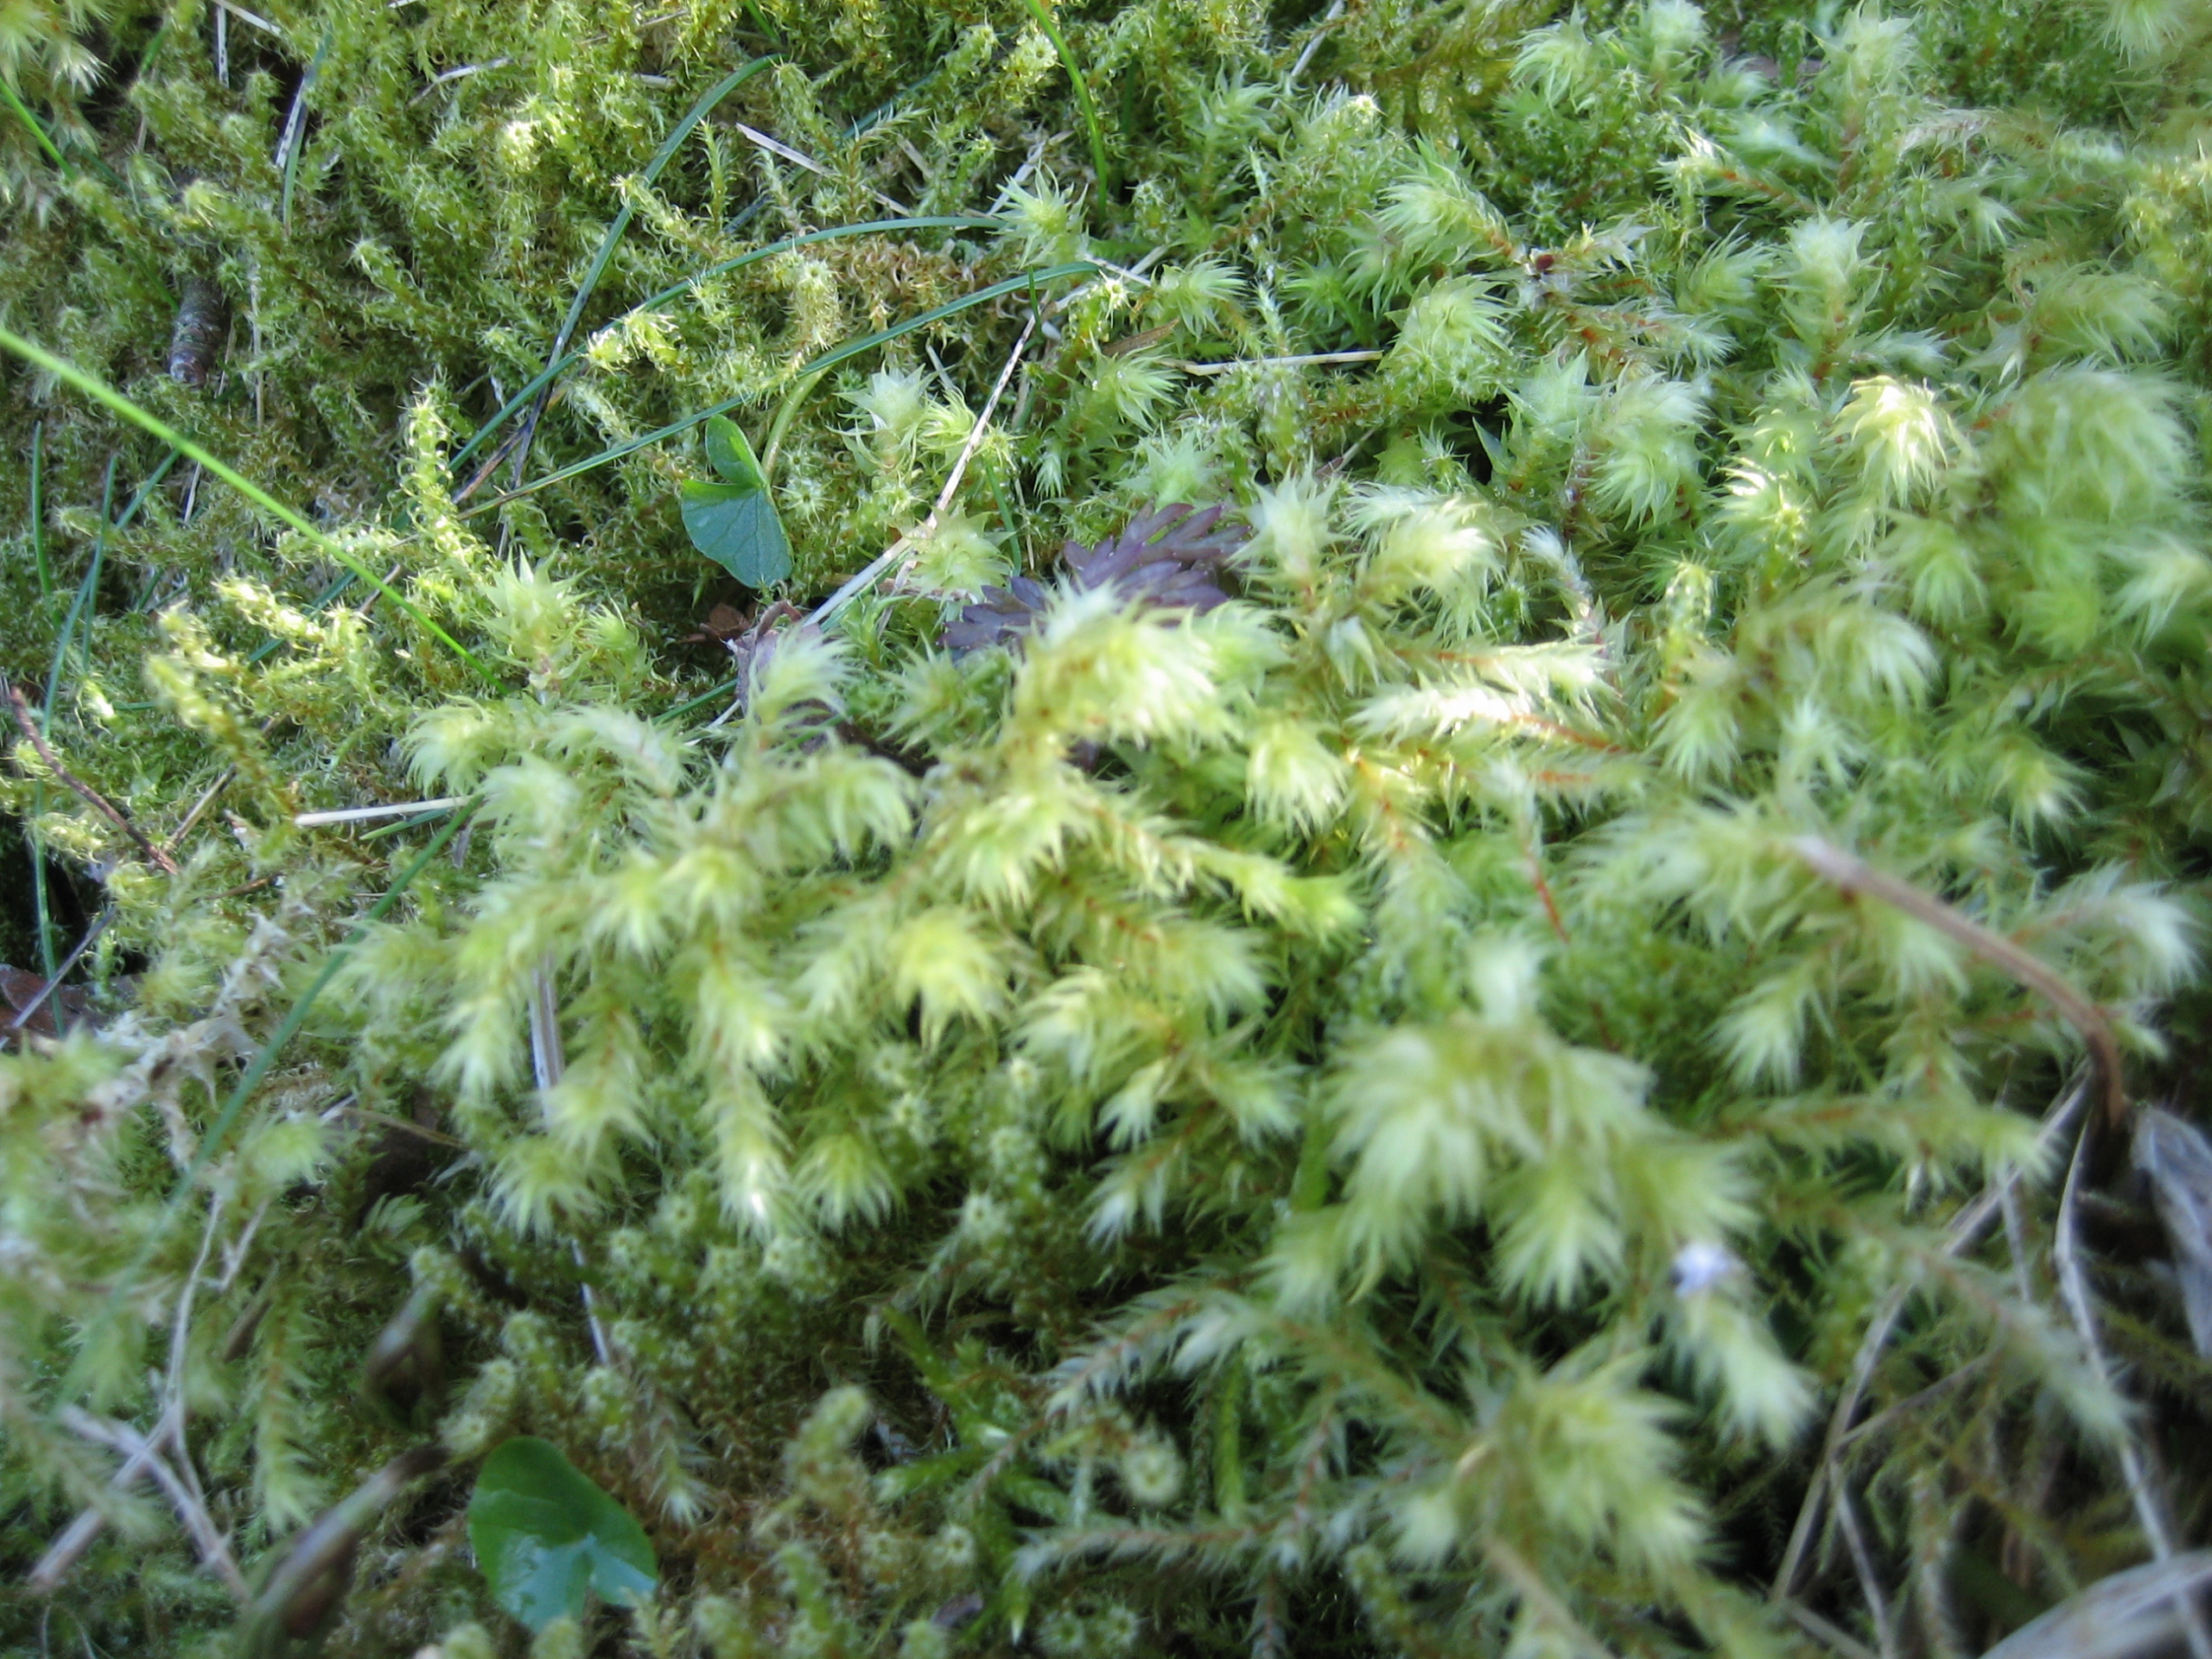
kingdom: Plantae
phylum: Bryophyta
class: Bryopsida
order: Hypnales
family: Hylocomiaceae
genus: Hylocomiadelphus
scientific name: Hylocomiadelphus triquetrus
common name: Stor kransemos
